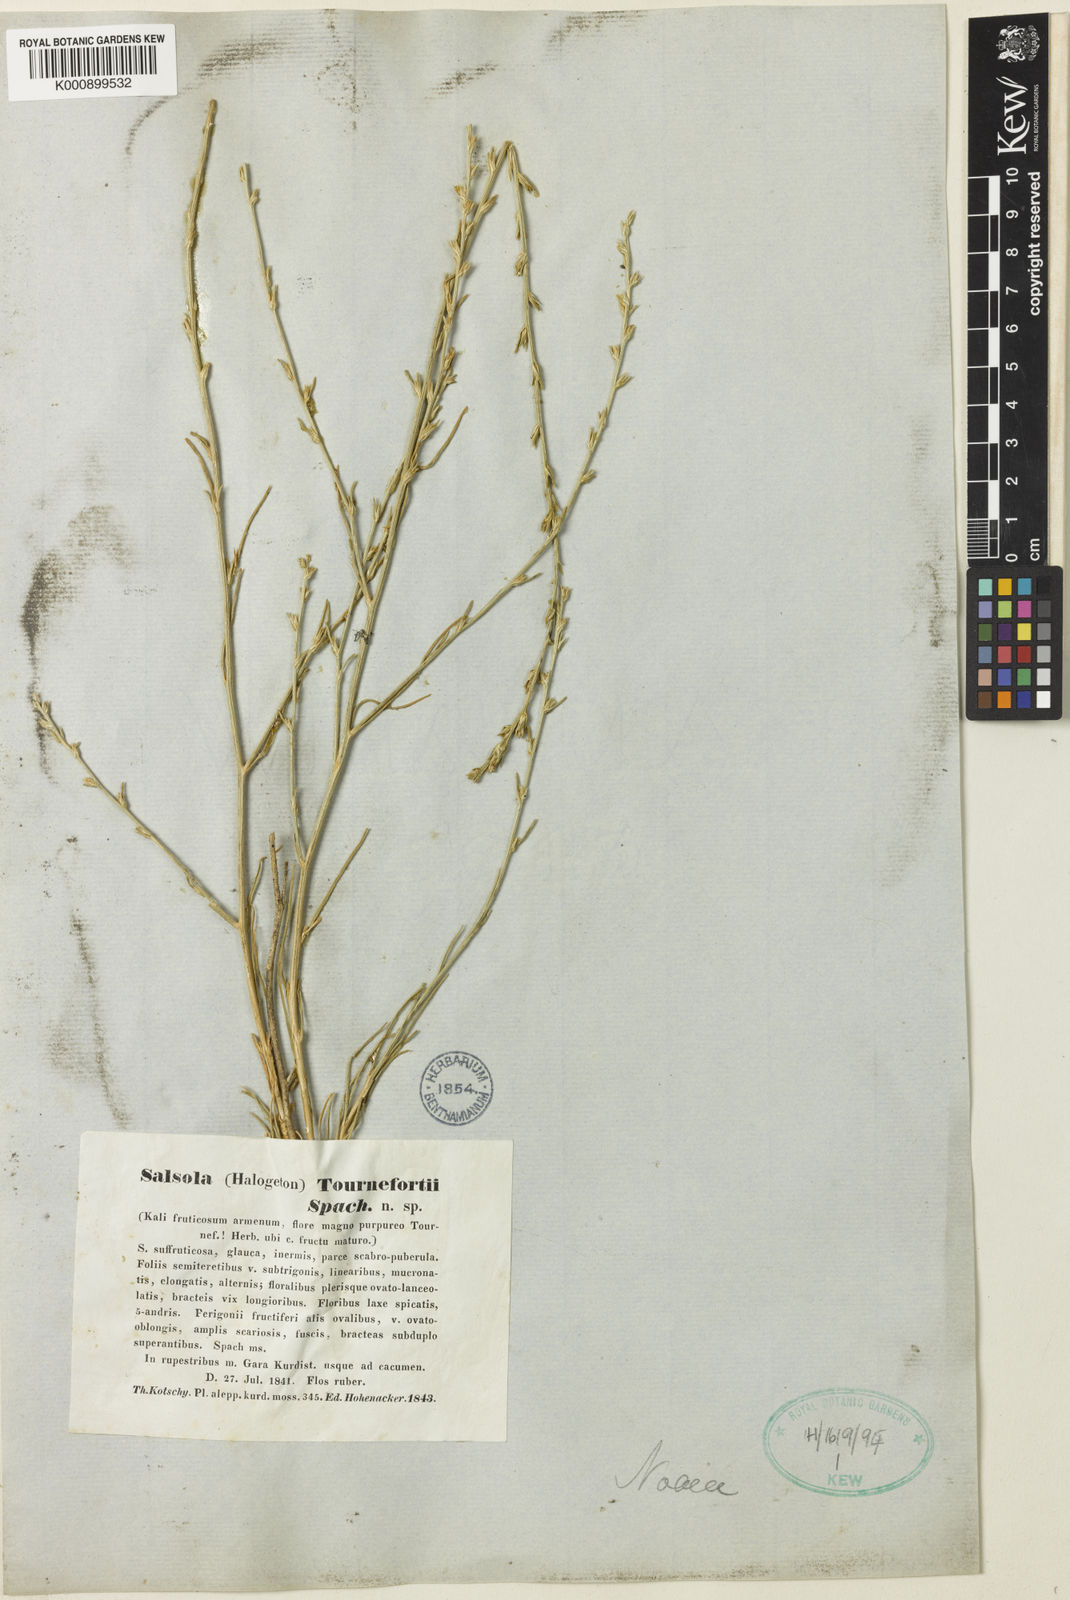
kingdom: Plantae
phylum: Tracheophyta
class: Magnoliopsida
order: Caryophyllales
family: Amaranthaceae
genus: Noaea
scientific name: Noaea tournefortii
